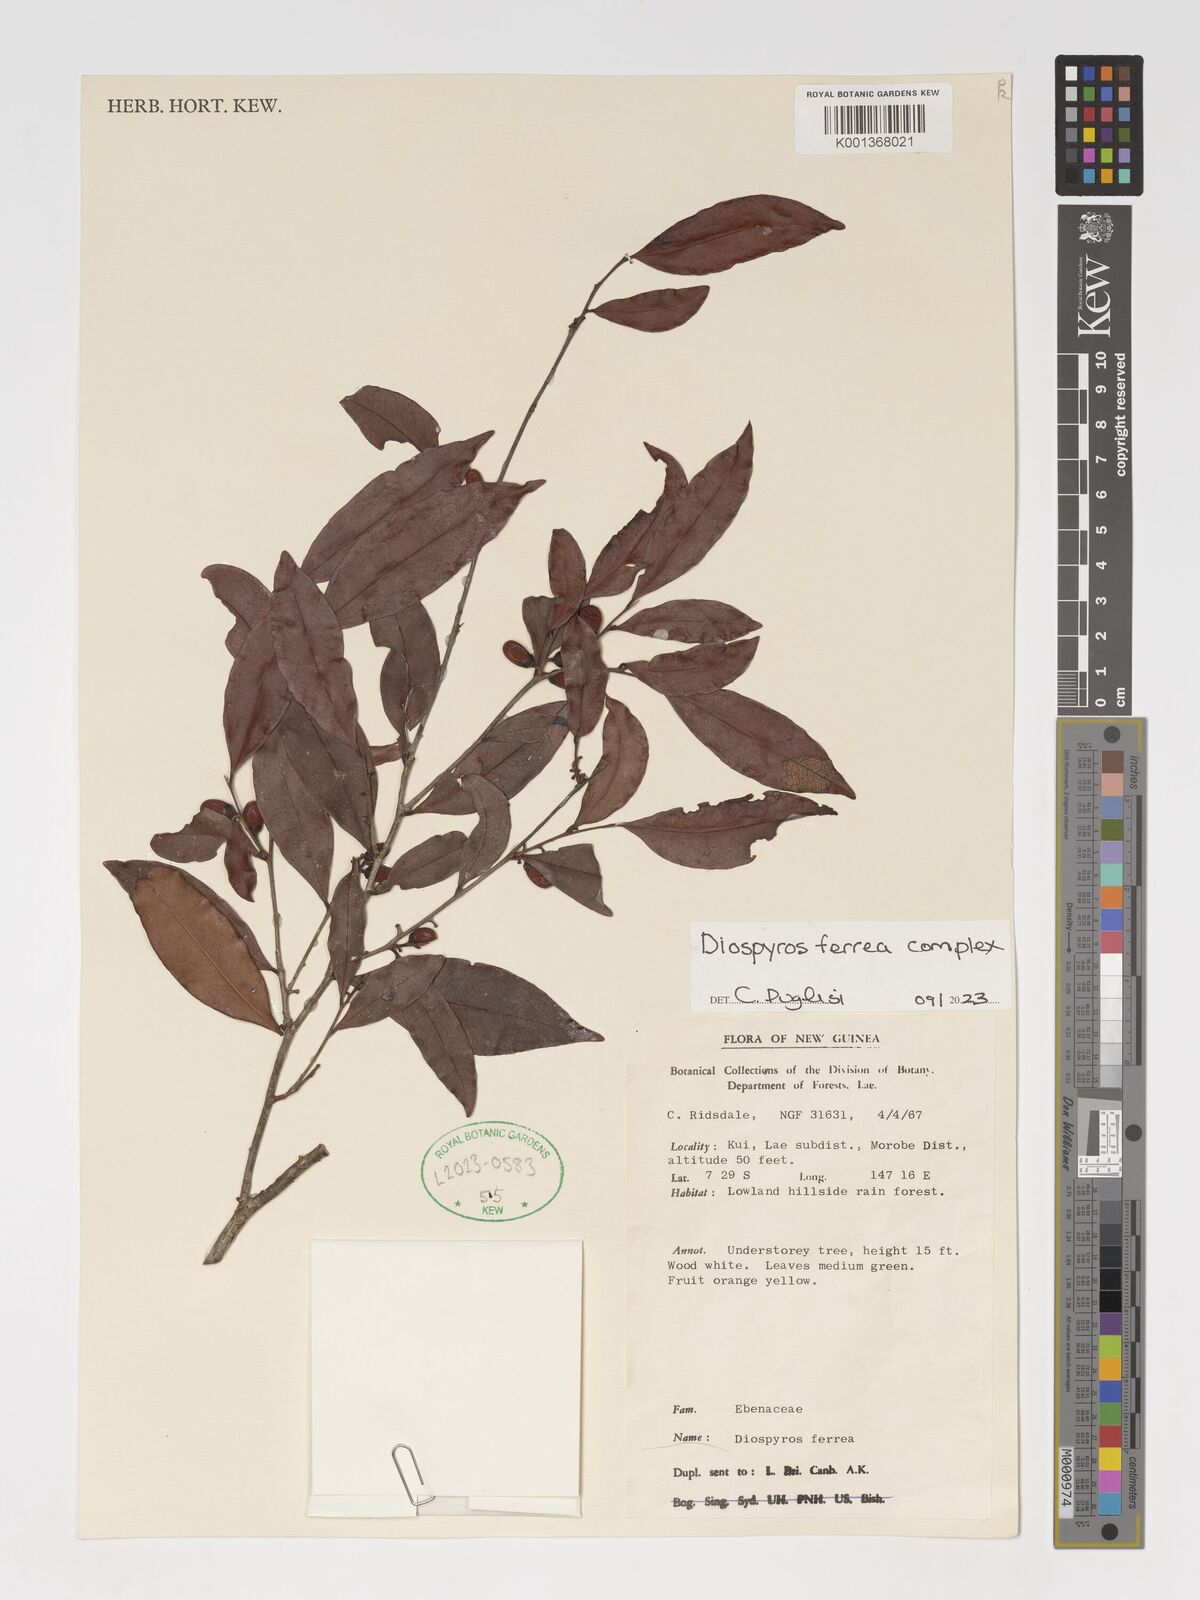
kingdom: Plantae
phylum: Tracheophyta
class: Magnoliopsida
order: Ericales
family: Ebenaceae
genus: Diospyros
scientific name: Diospyros ferrea
